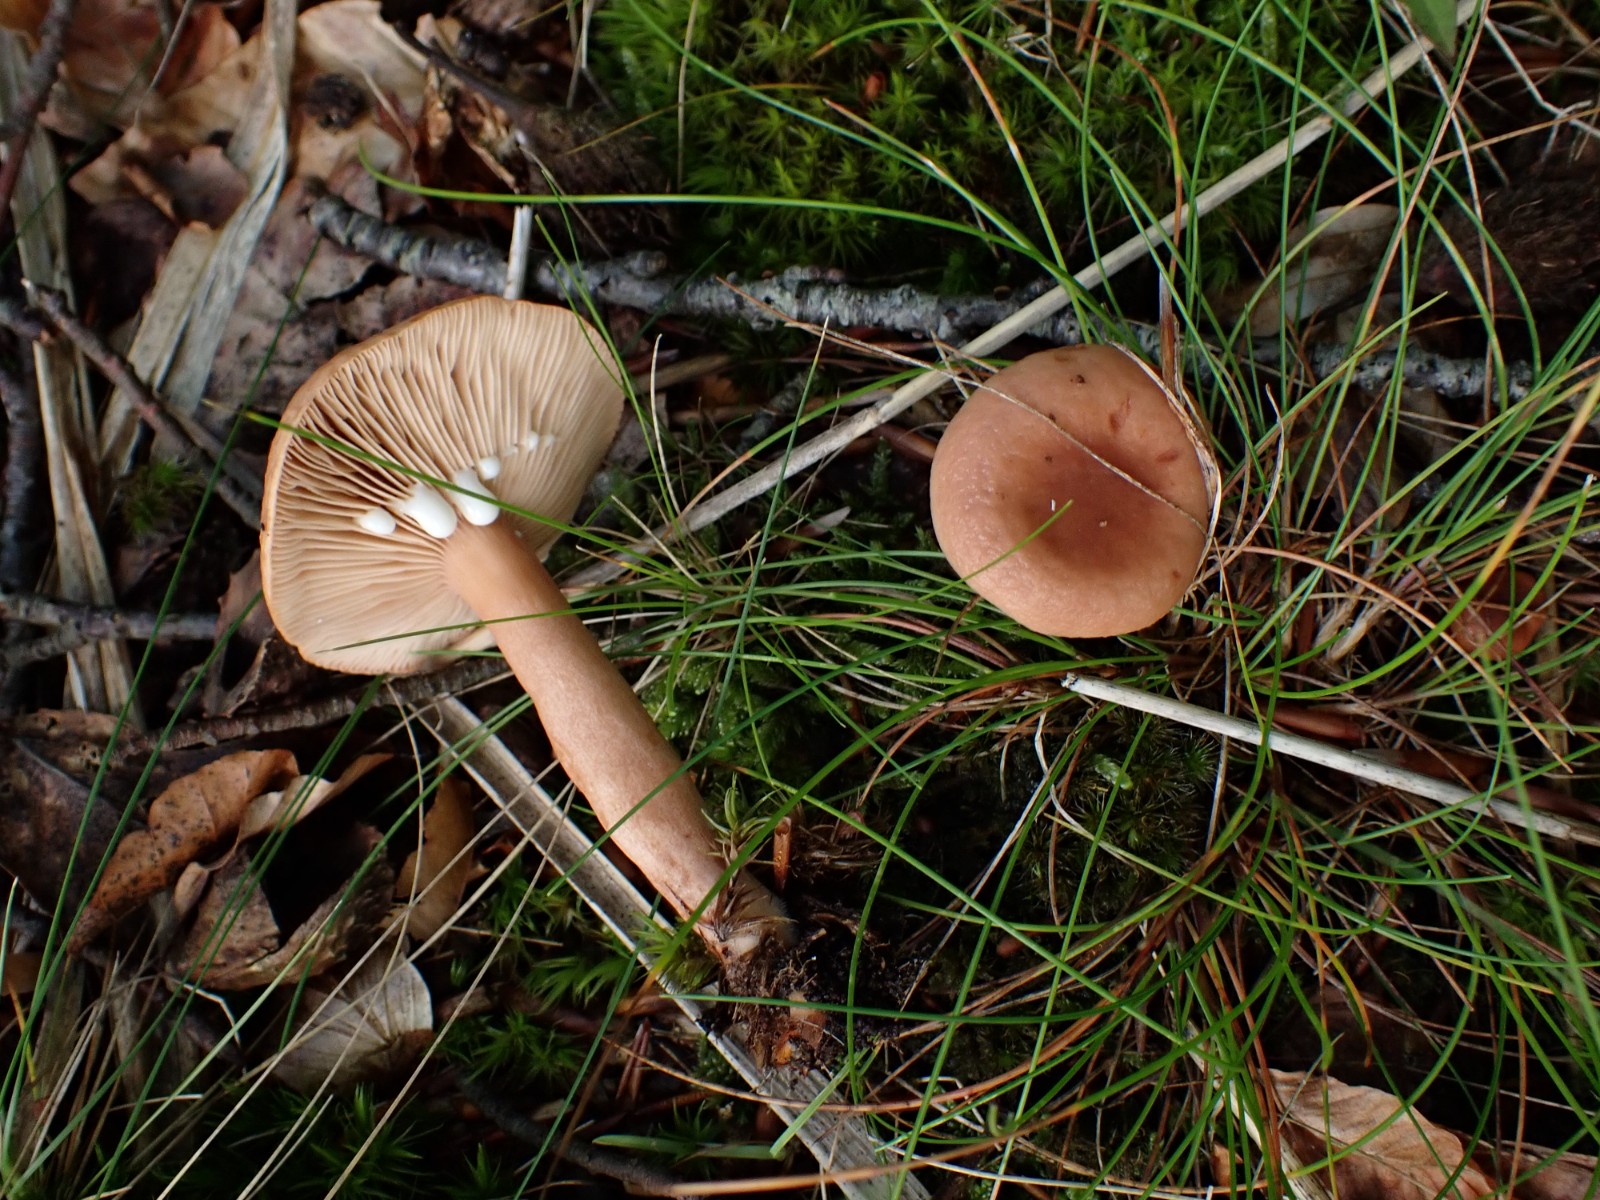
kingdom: Fungi
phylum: Basidiomycota
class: Agaricomycetes
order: Russulales
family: Russulaceae
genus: Lactarius
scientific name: Lactarius tabidus
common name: rynket mælkehat
